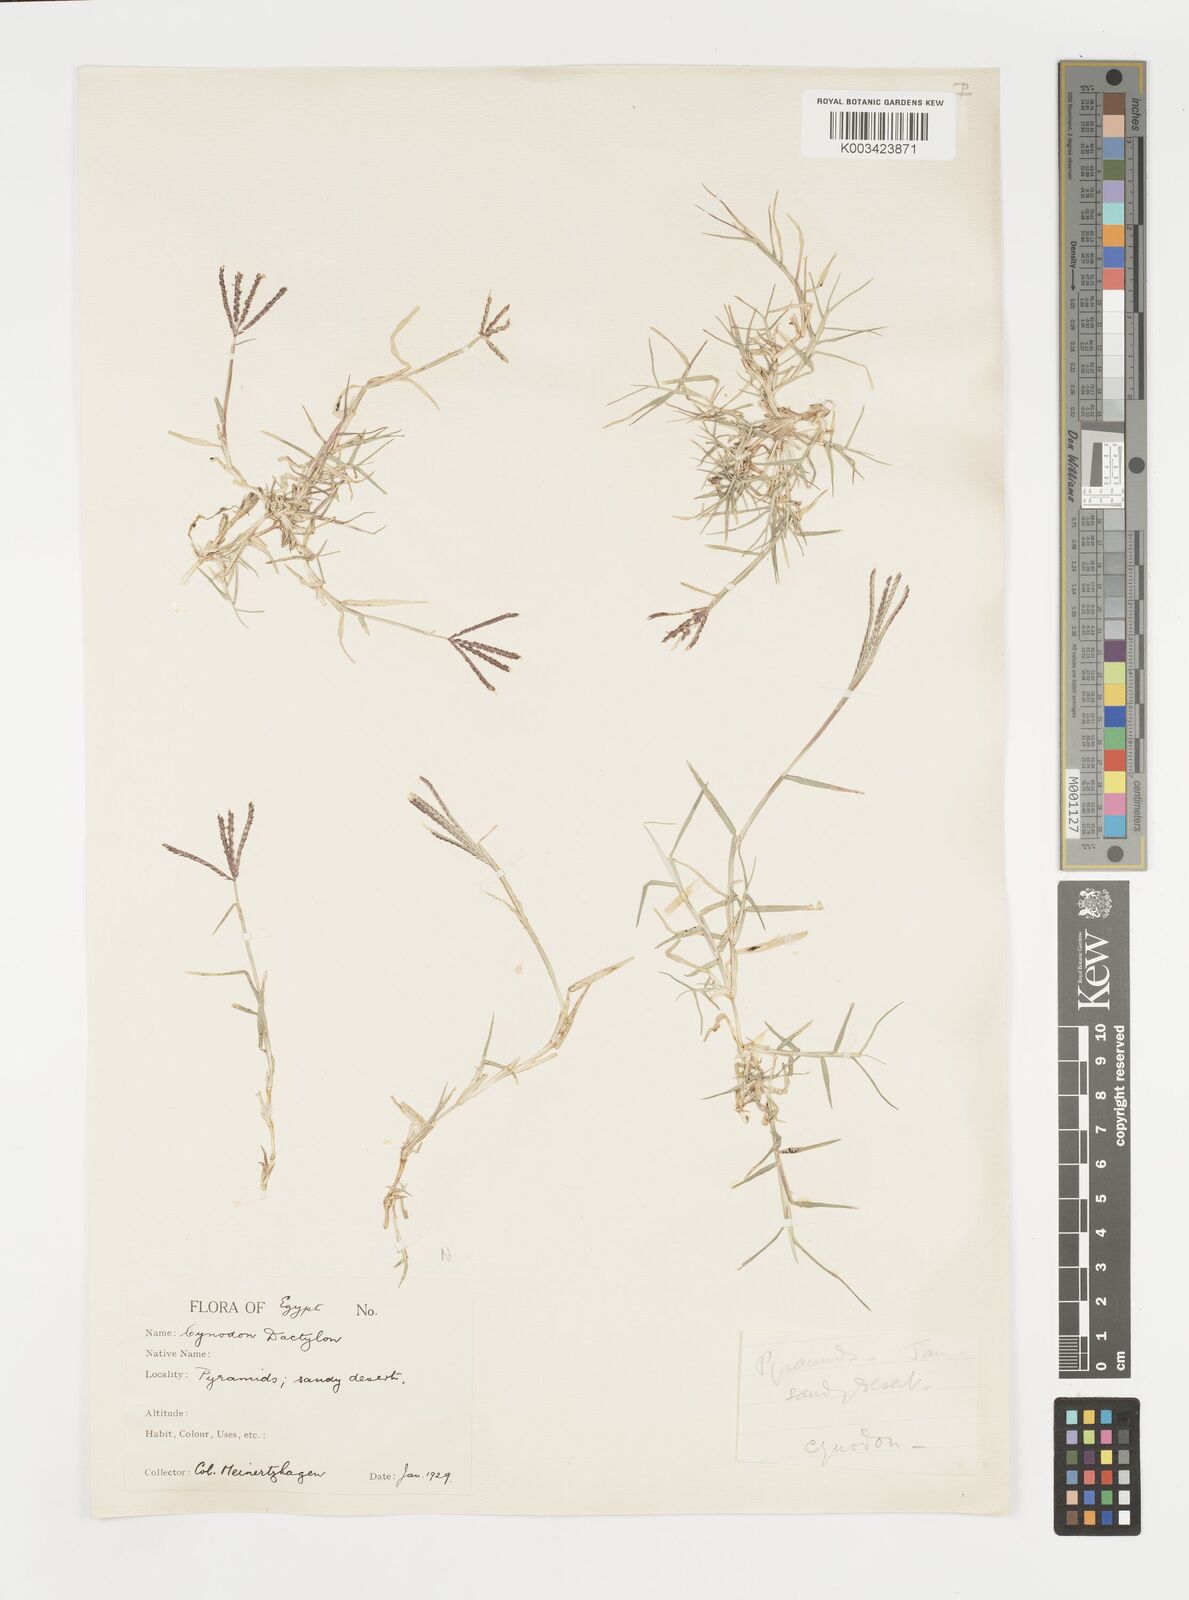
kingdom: Plantae
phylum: Tracheophyta
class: Liliopsida
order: Poales
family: Poaceae
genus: Cynodon
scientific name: Cynodon dactylon
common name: Bermuda grass
